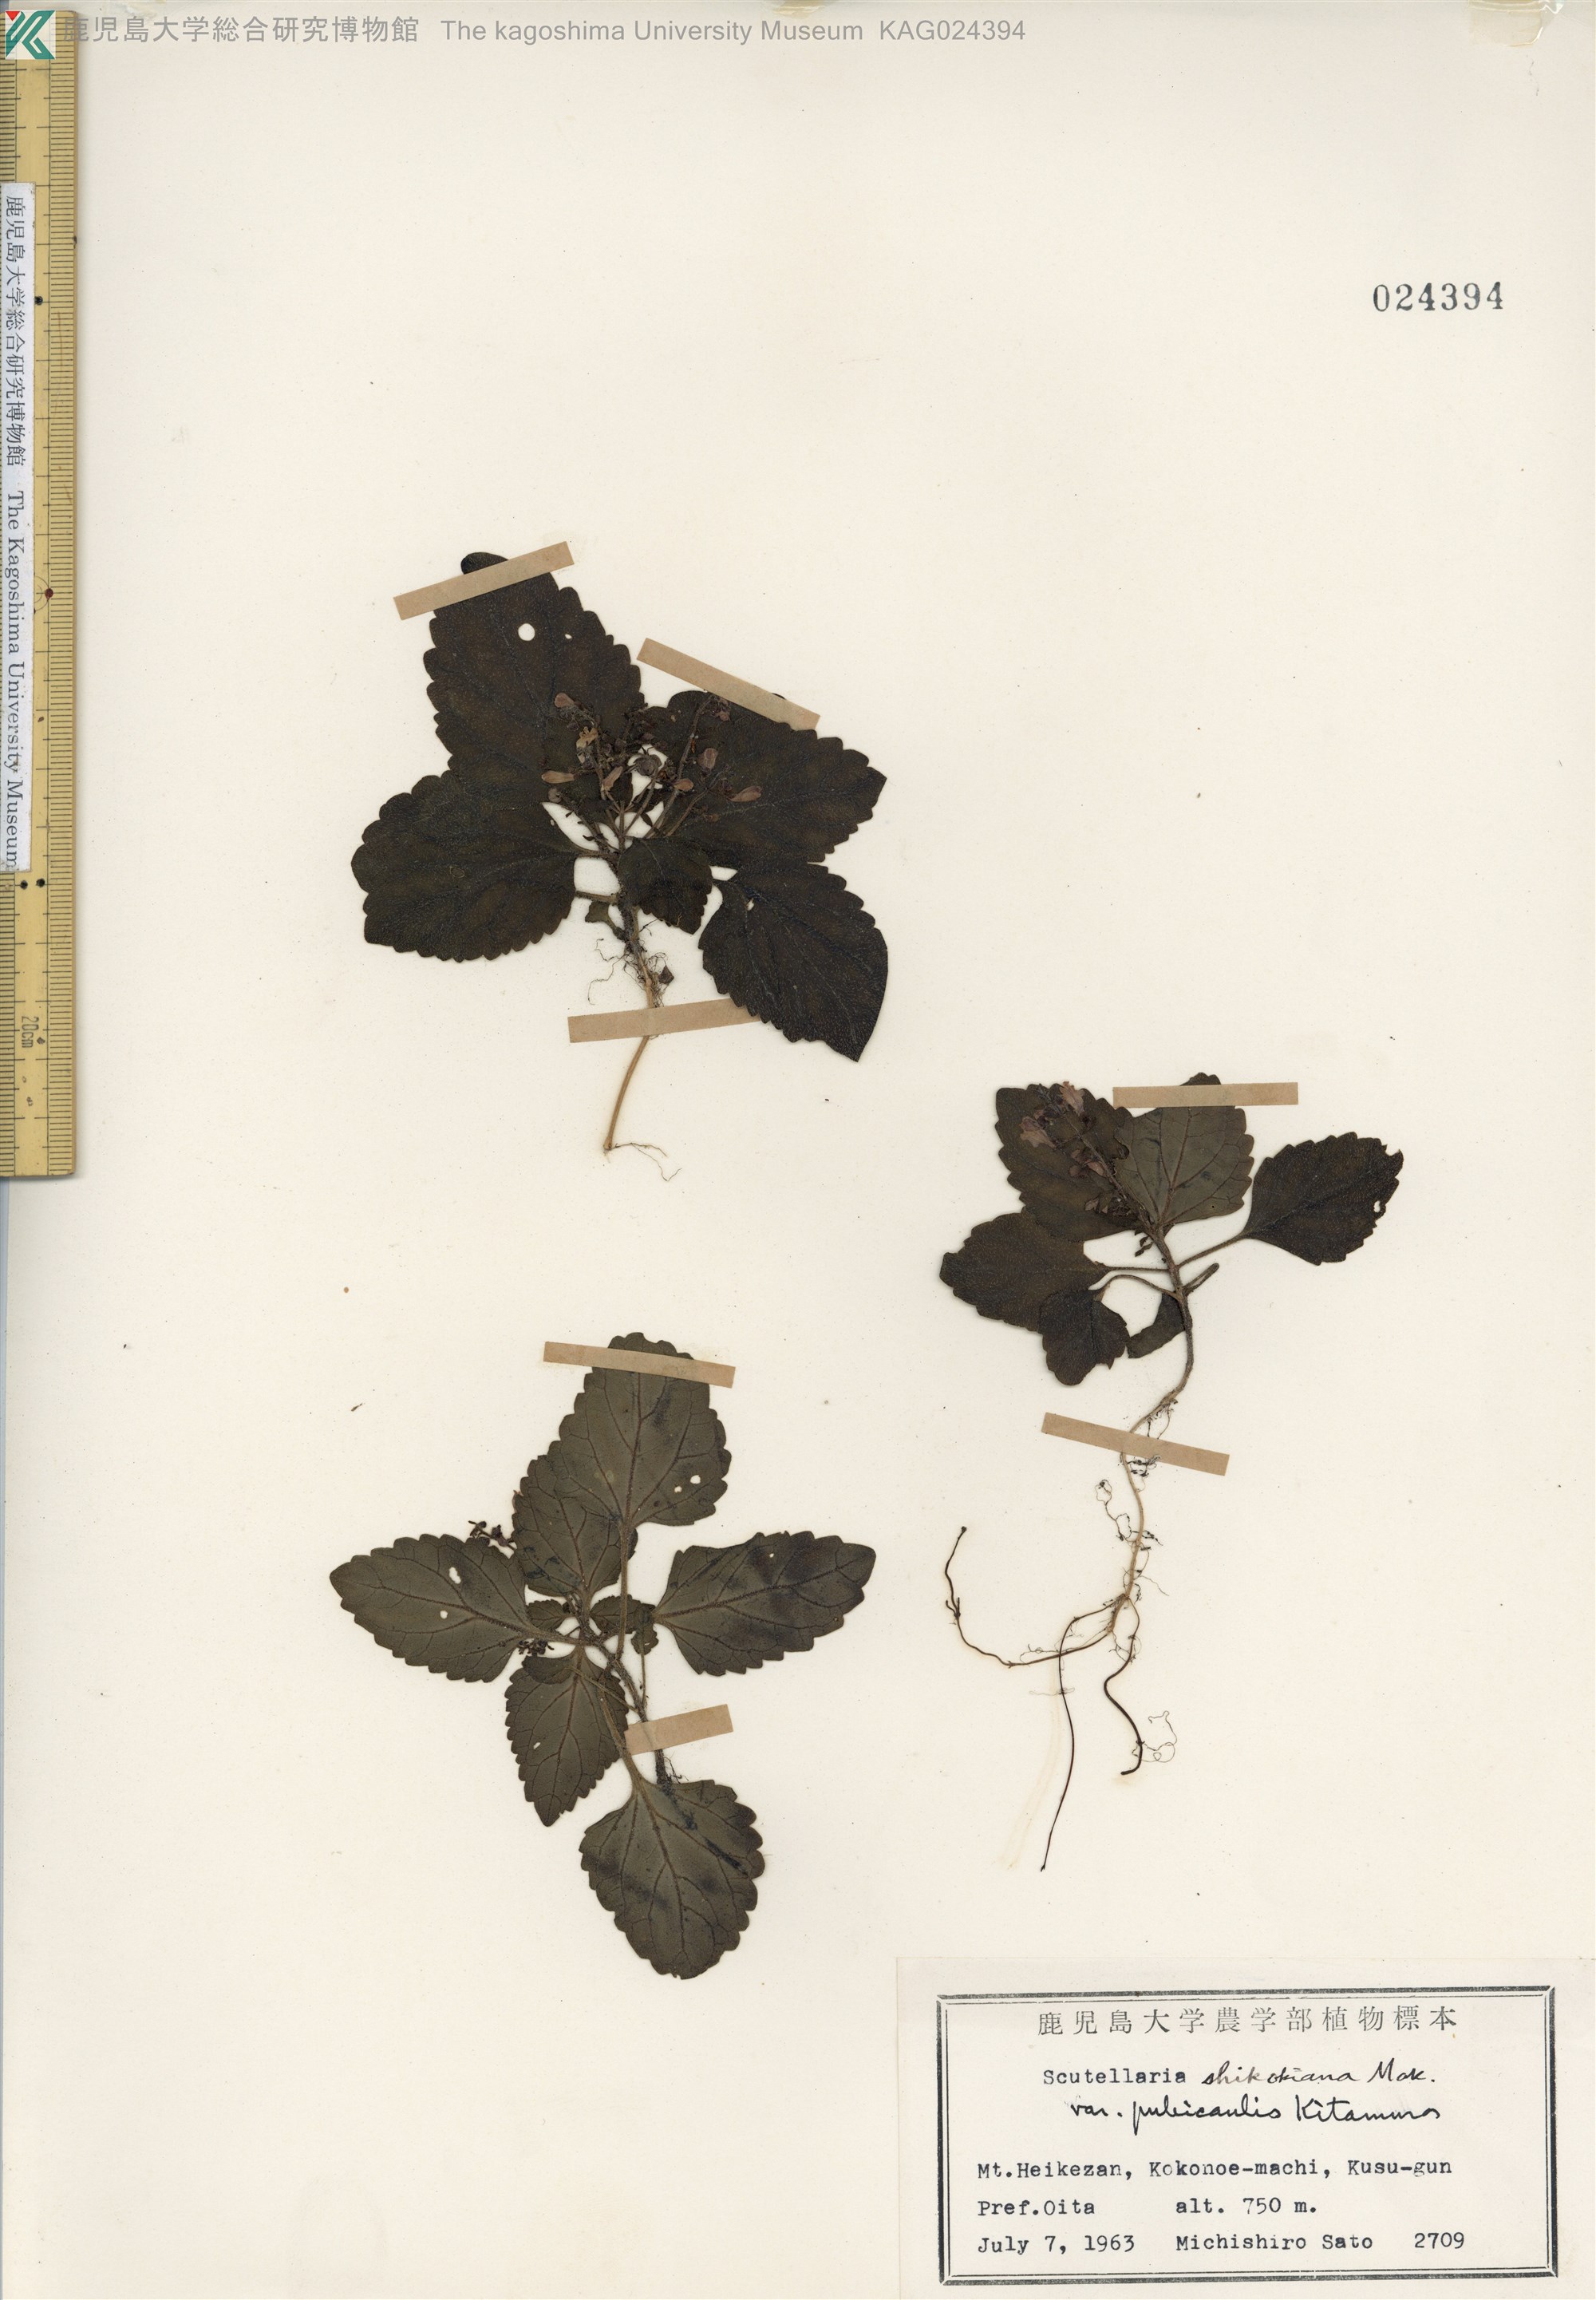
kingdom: Plantae
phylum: Tracheophyta
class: Magnoliopsida
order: Lamiales
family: Lamiaceae
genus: Scutellaria
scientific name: Scutellaria shikokiana
